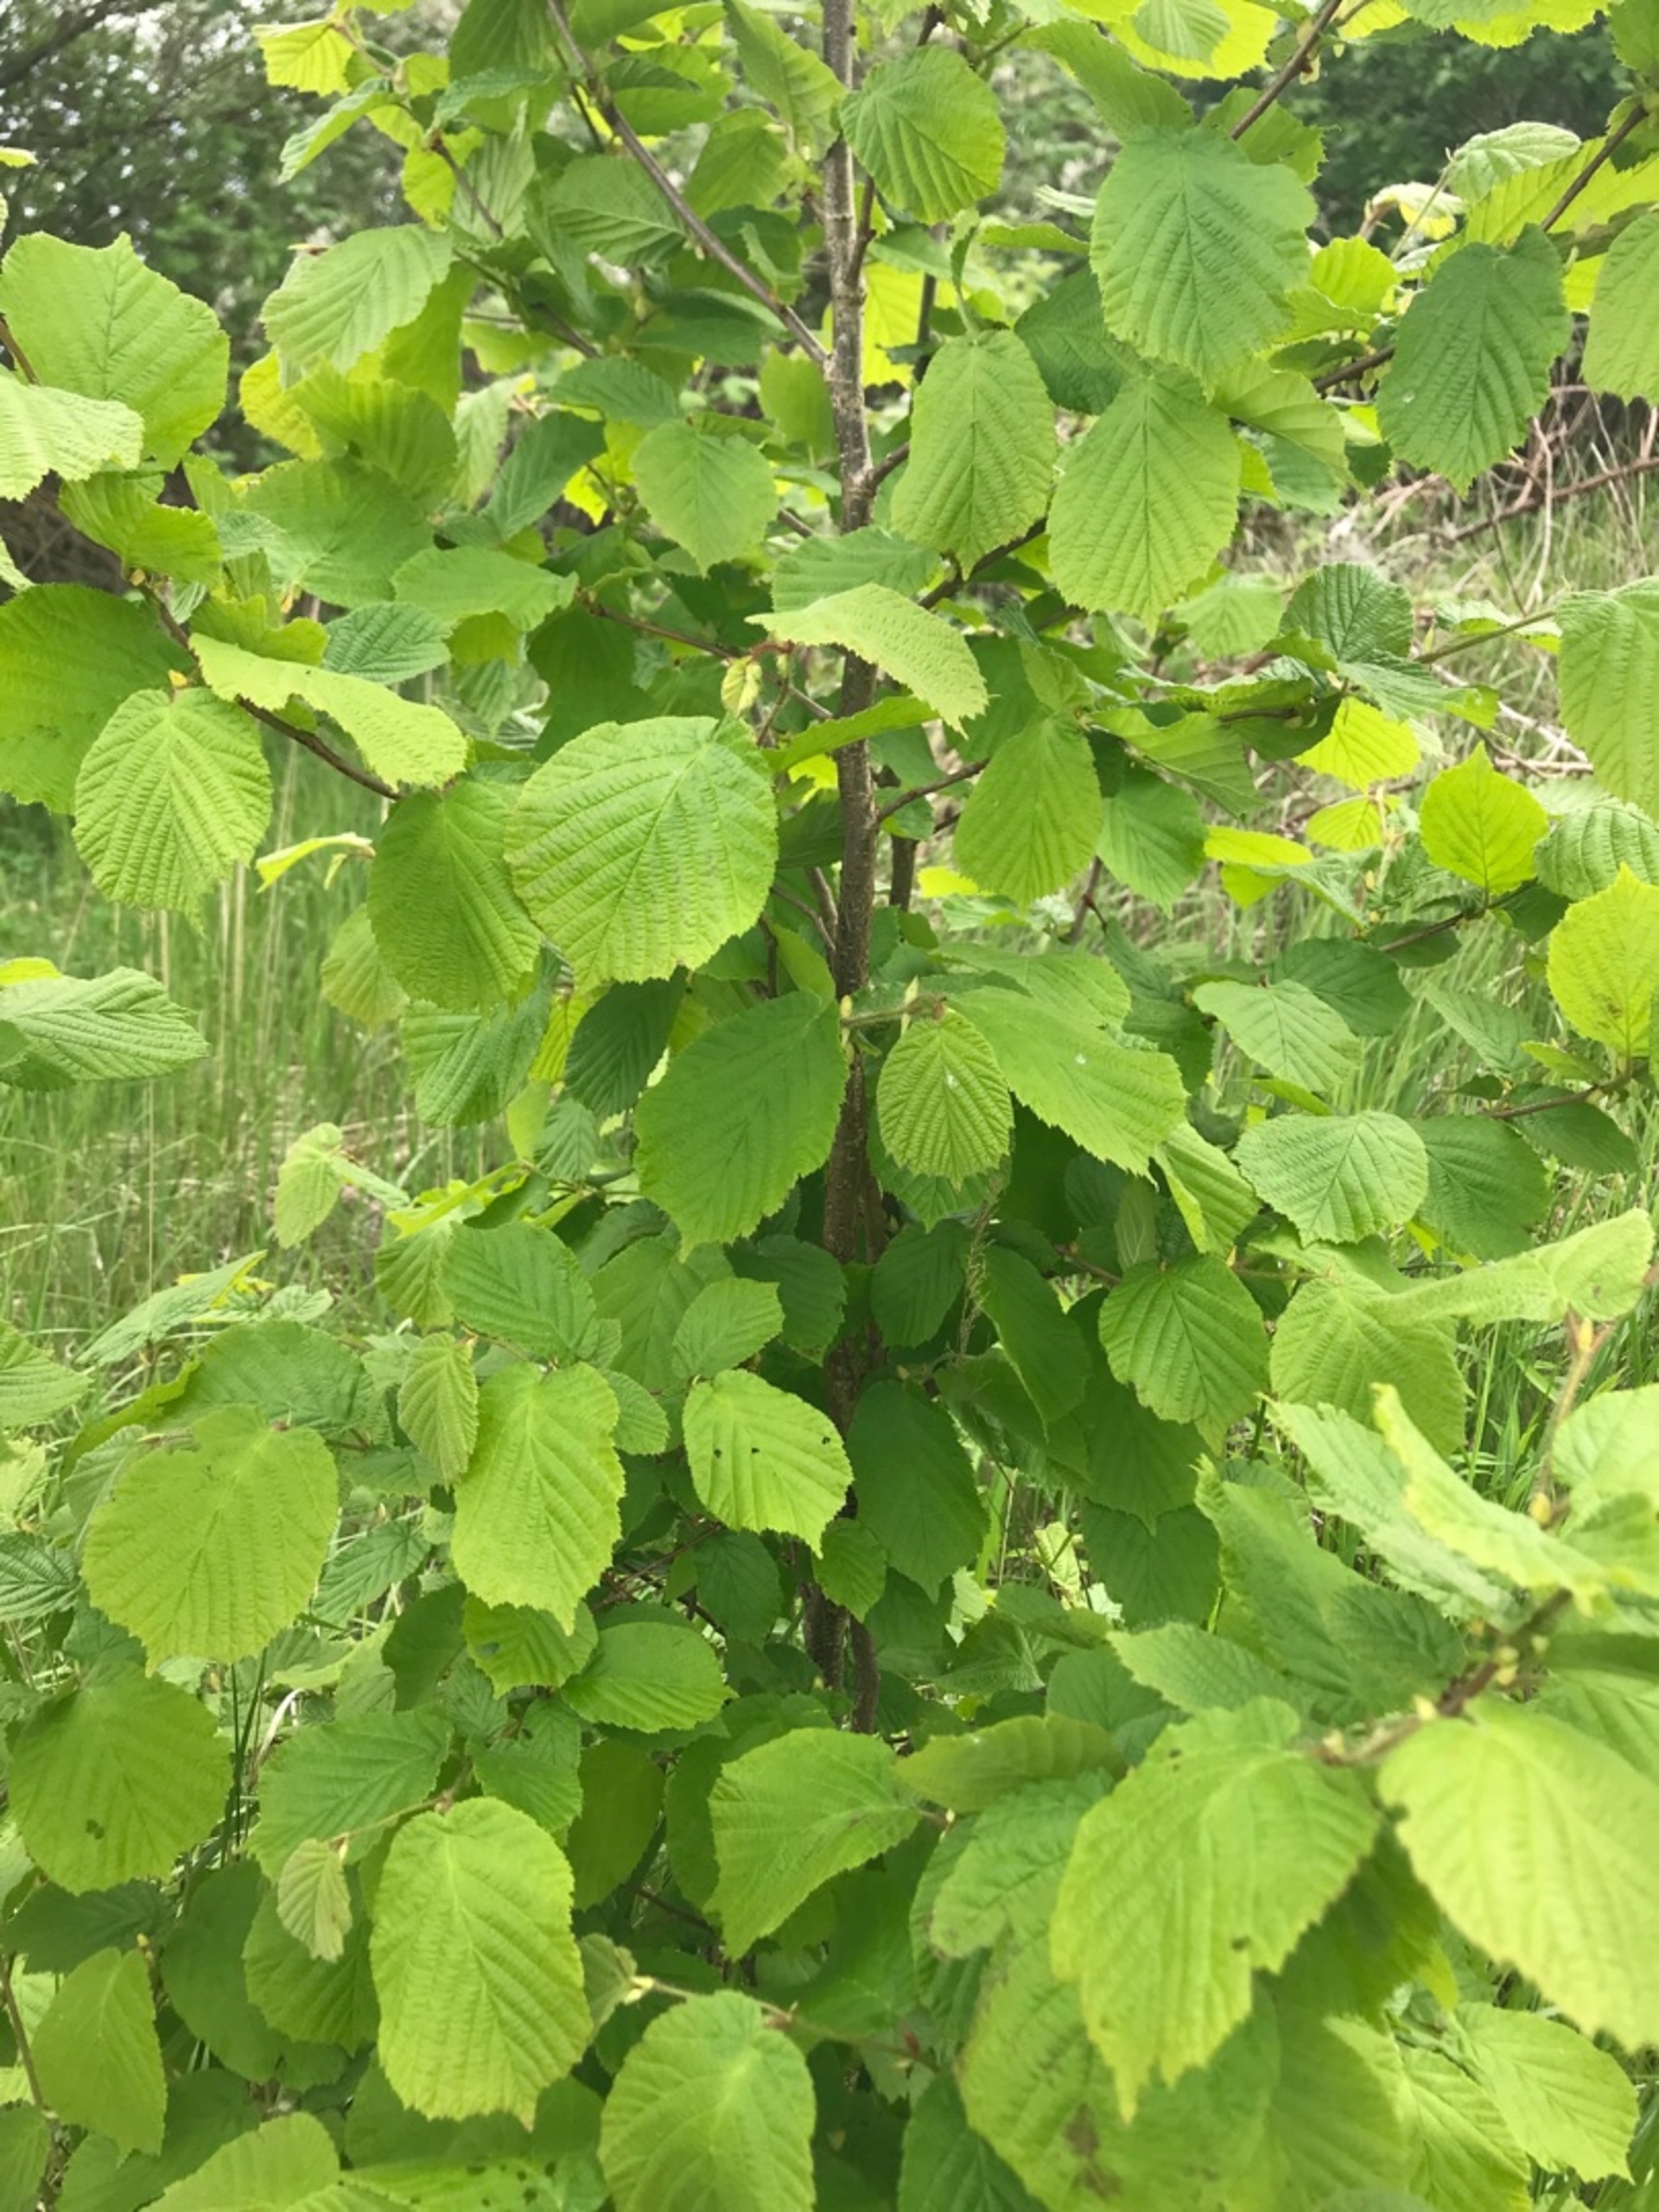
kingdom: Plantae
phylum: Tracheophyta
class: Magnoliopsida
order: Fagales
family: Betulaceae
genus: Corylus
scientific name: Corylus avellana
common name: Hassel
